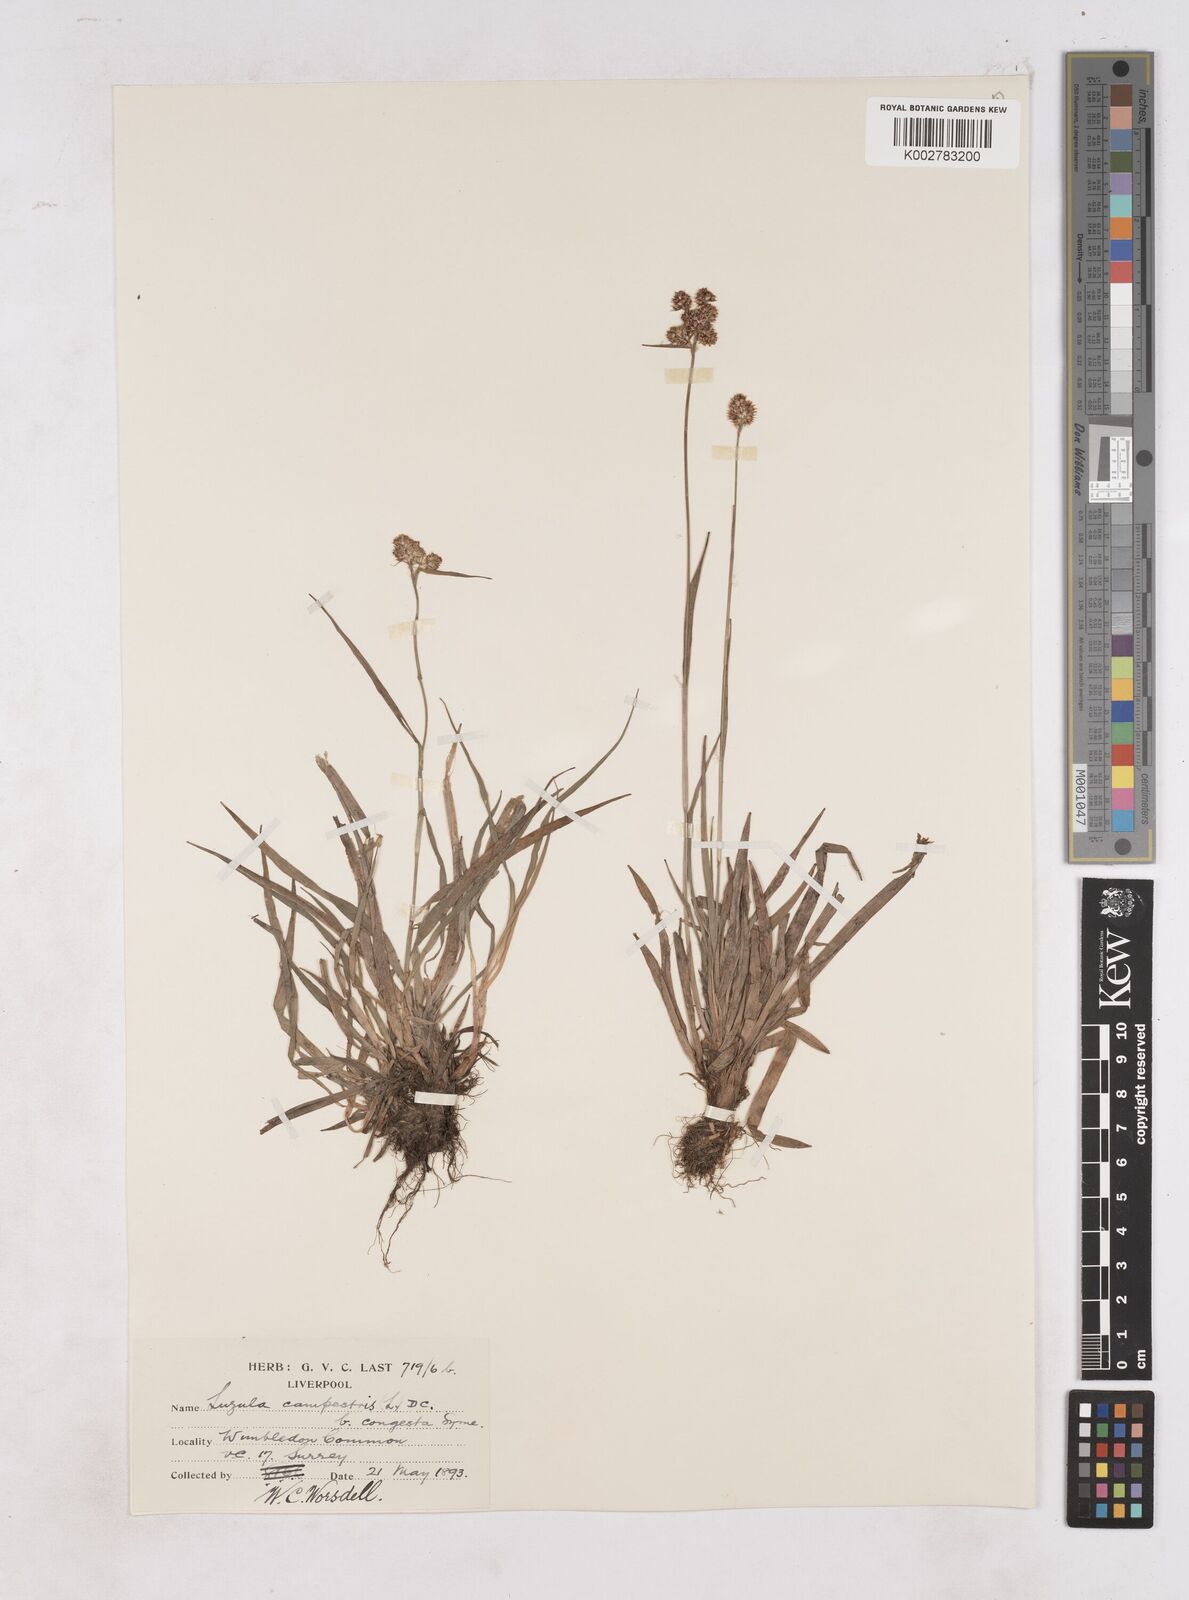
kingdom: Plantae
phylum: Tracheophyta
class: Liliopsida
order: Poales
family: Juncaceae
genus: Luzula
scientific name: Luzula multiflora
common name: Heath wood-rush
